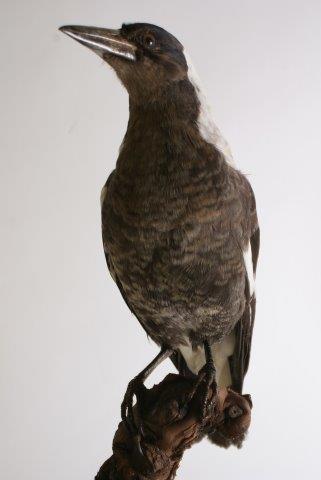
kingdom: Animalia
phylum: Chordata
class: Aves
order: Passeriformes
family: Cracticidae
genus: Gymnorhina
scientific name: Gymnorhina
